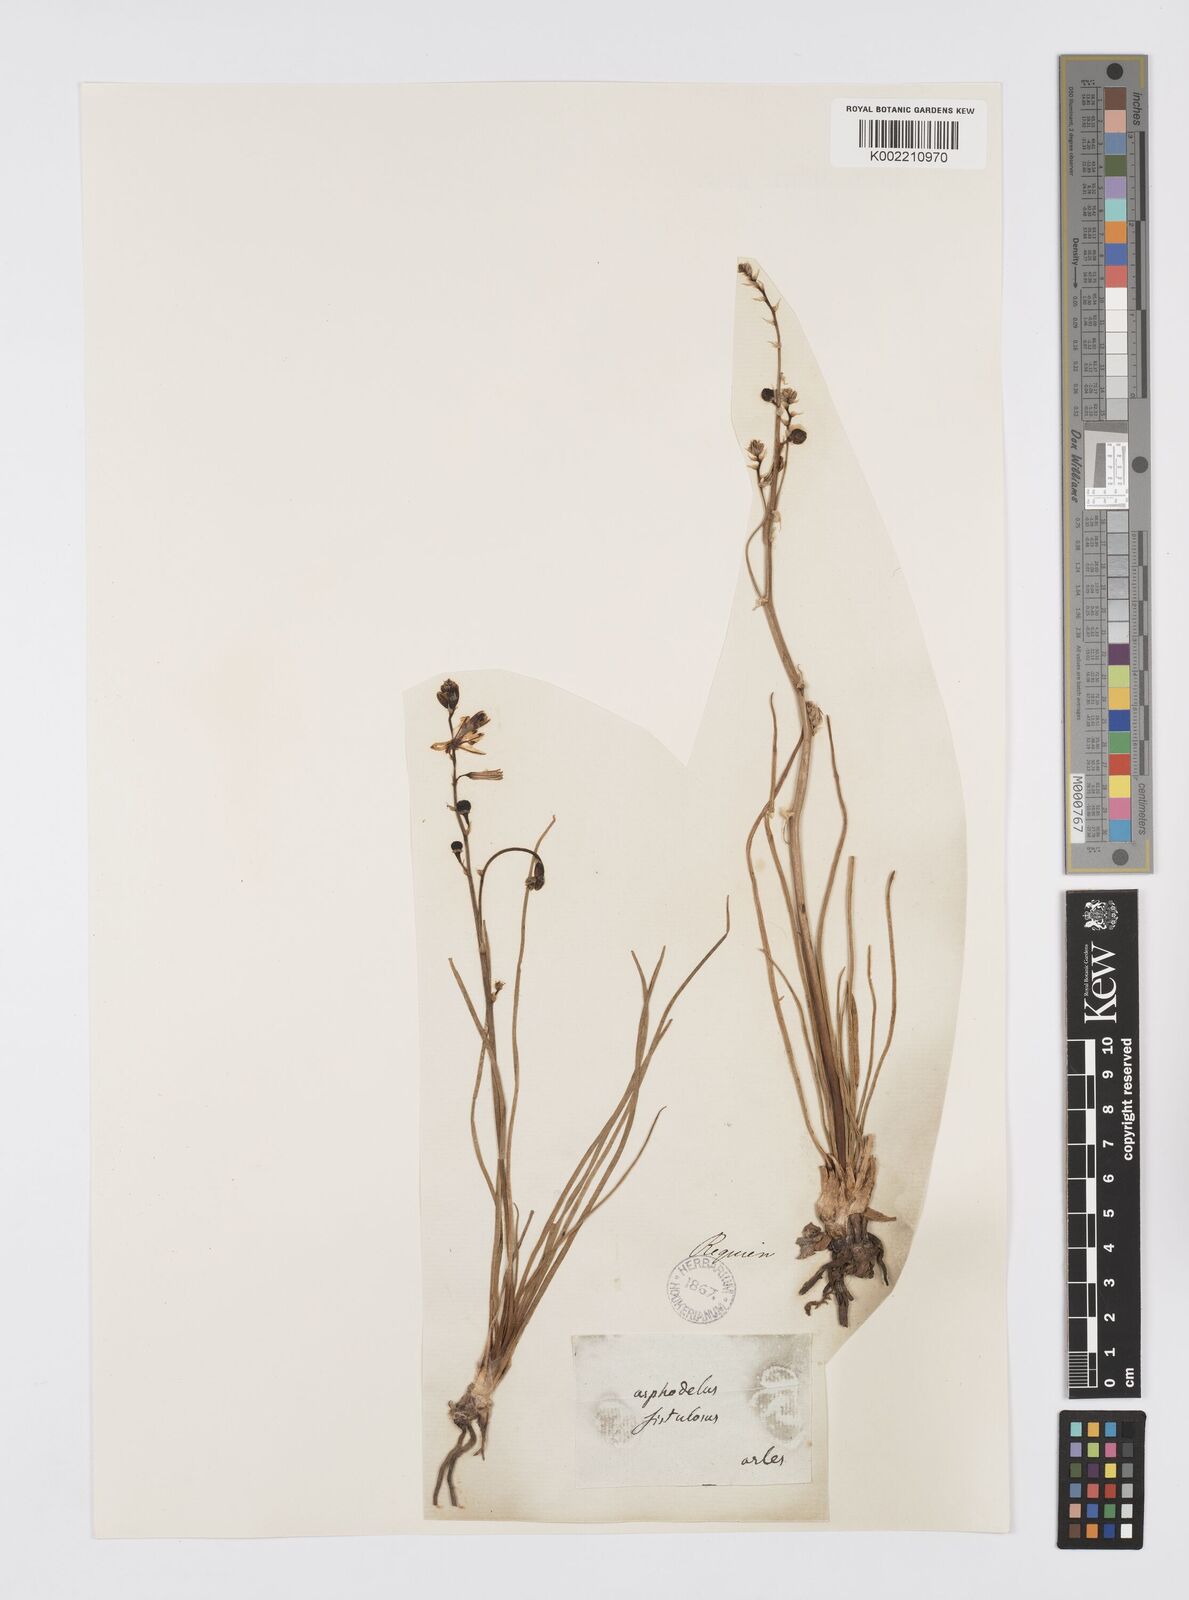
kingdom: Plantae
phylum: Tracheophyta
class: Liliopsida
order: Asparagales
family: Asphodelaceae
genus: Asphodelus
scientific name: Asphodelus fistulosus
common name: Onionweed
